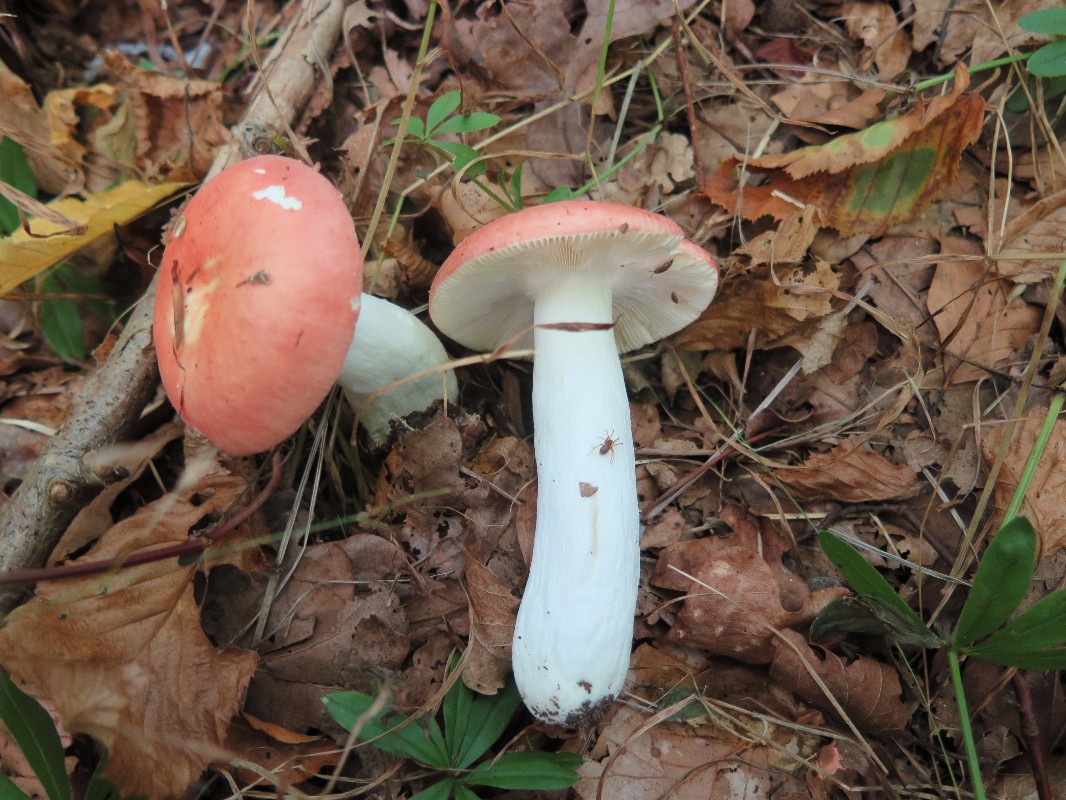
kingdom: Fungi
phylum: Basidiomycota
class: Agaricomycetes
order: Russulales
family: Russulaceae
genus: Russula
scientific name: Russula pseudointegra
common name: cinnoberrød skørhat
